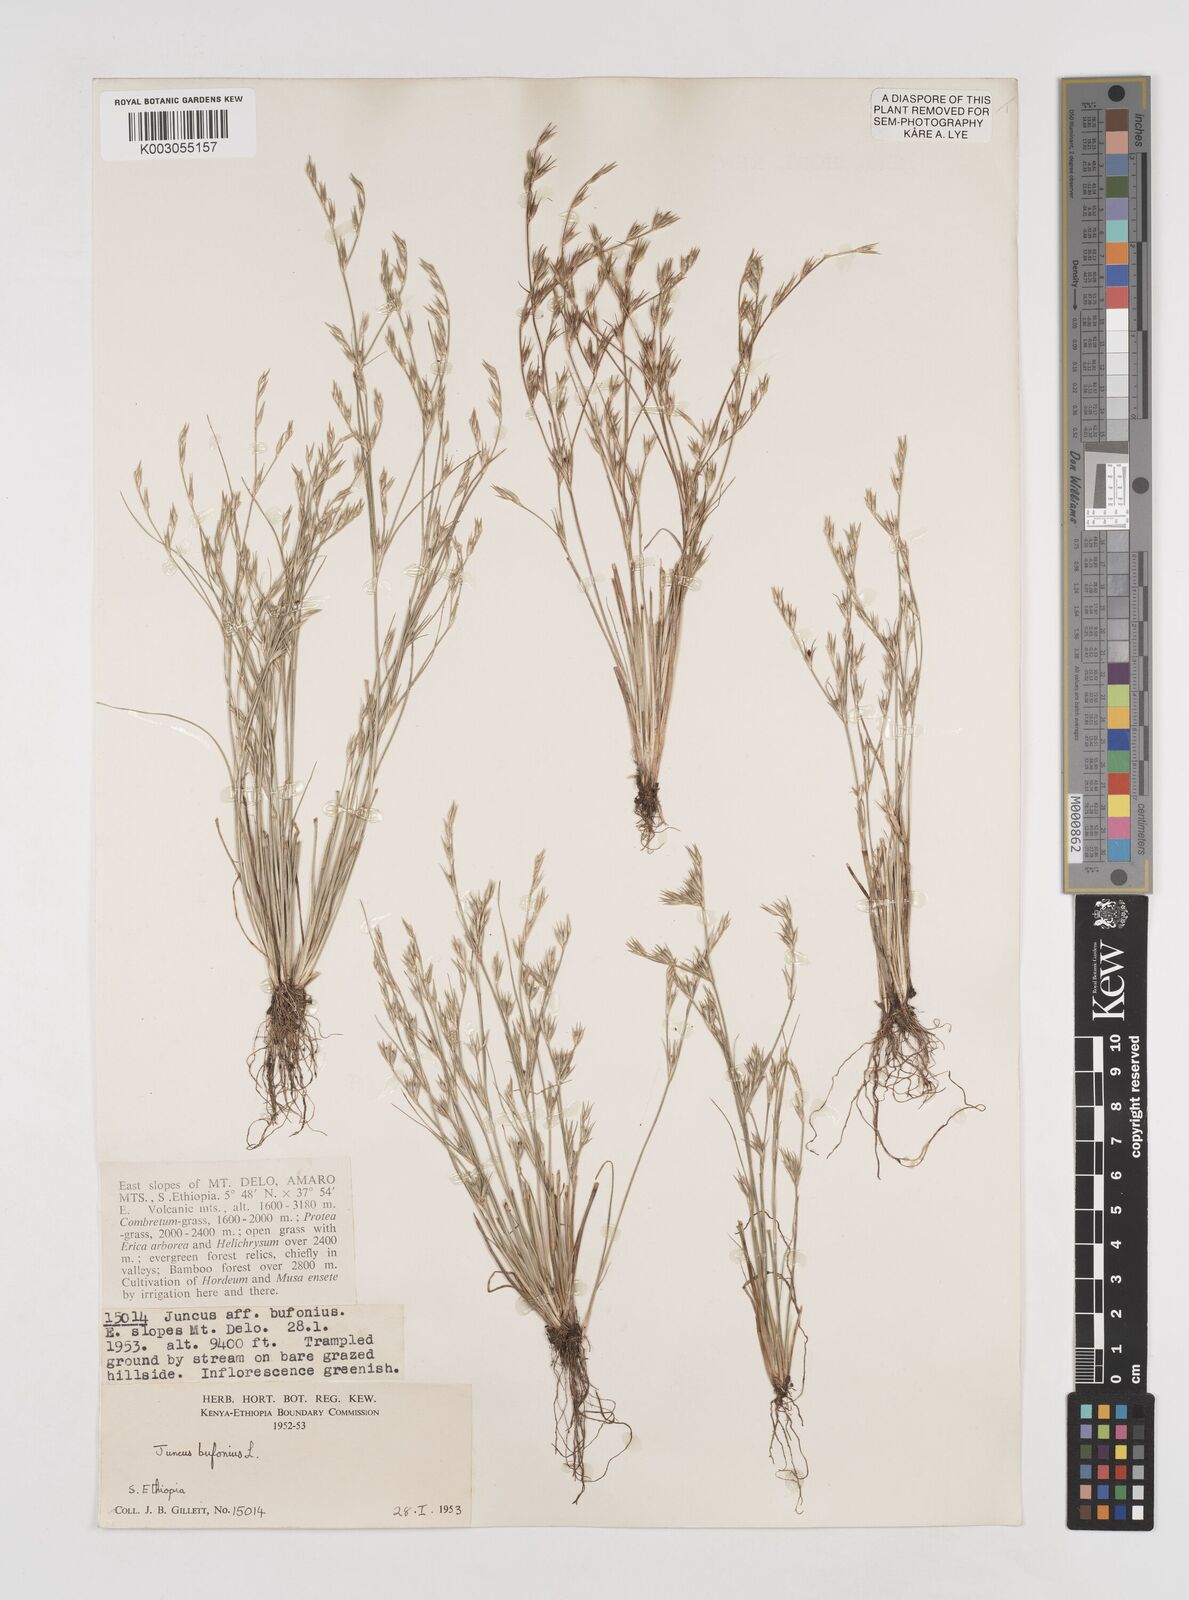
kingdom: Plantae
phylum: Tracheophyta
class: Liliopsida
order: Poales
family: Juncaceae
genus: Juncus
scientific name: Juncus bufonius
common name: Toad rush
